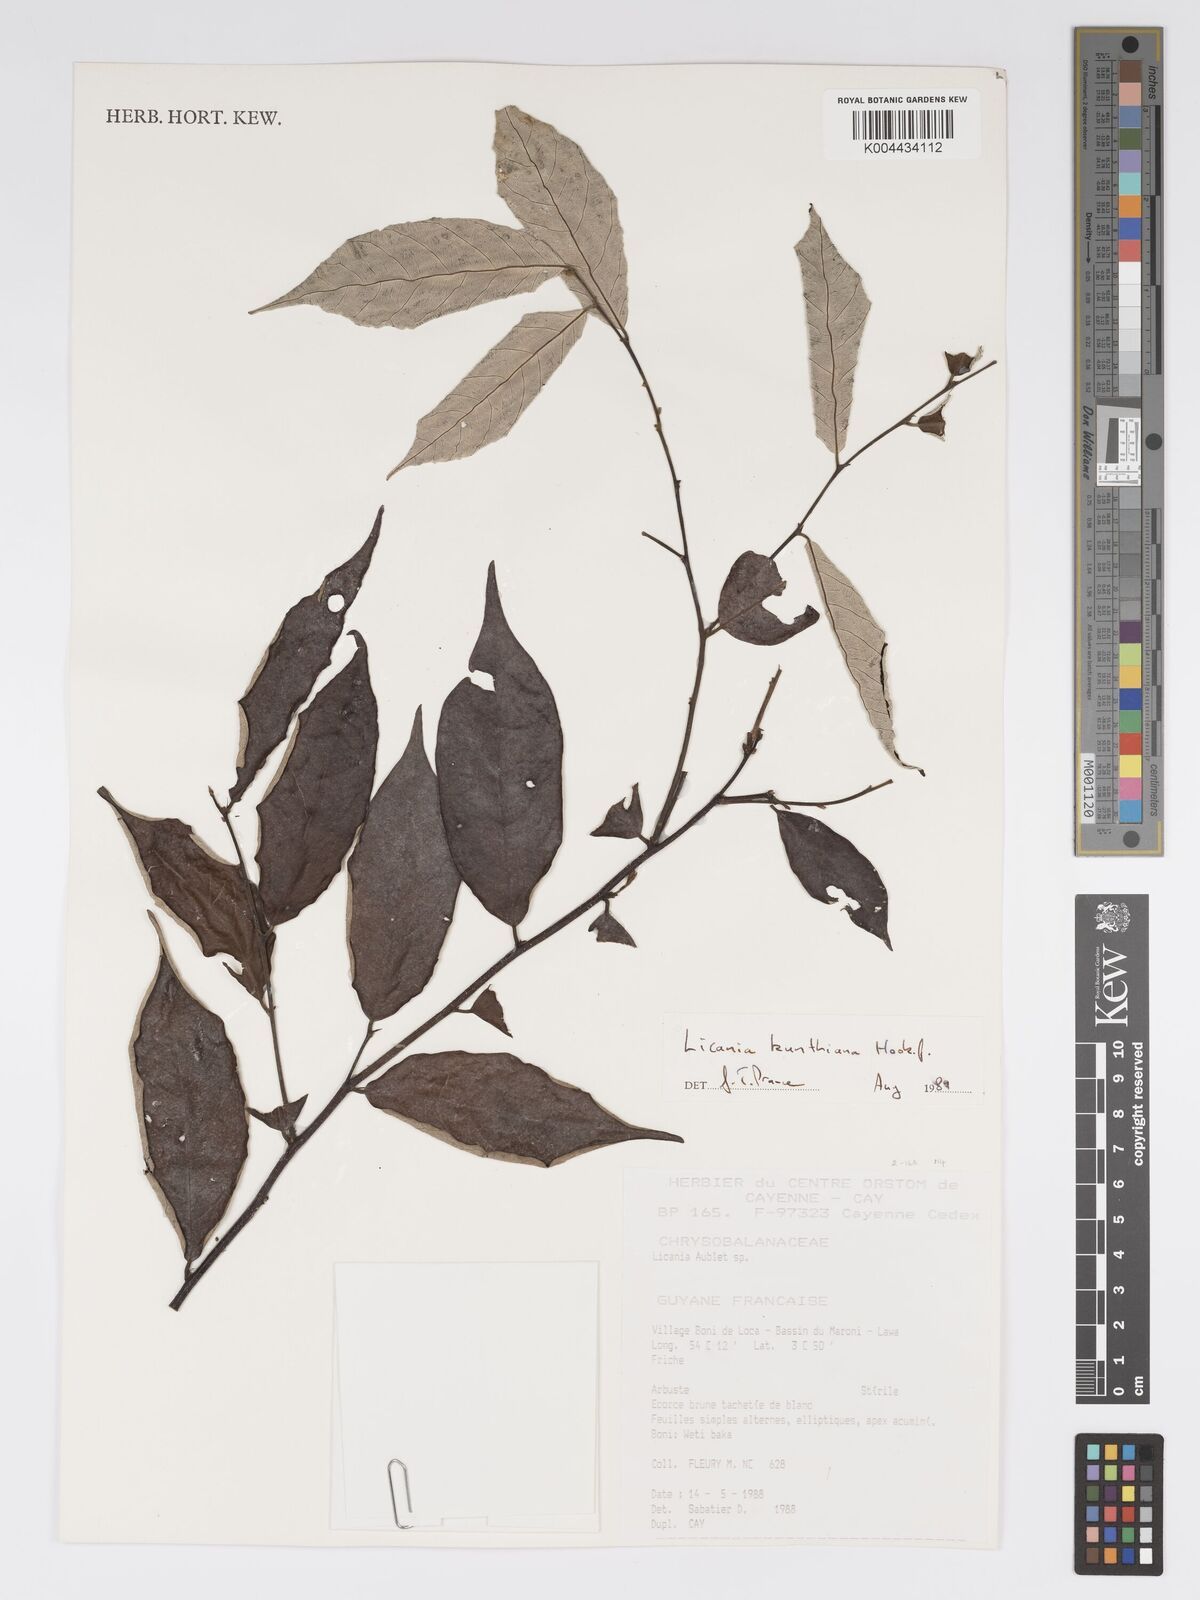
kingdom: Plantae
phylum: Tracheophyta
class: Magnoliopsida
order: Malpighiales
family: Chrysobalanaceae
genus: Licania
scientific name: Licania kunthiana
